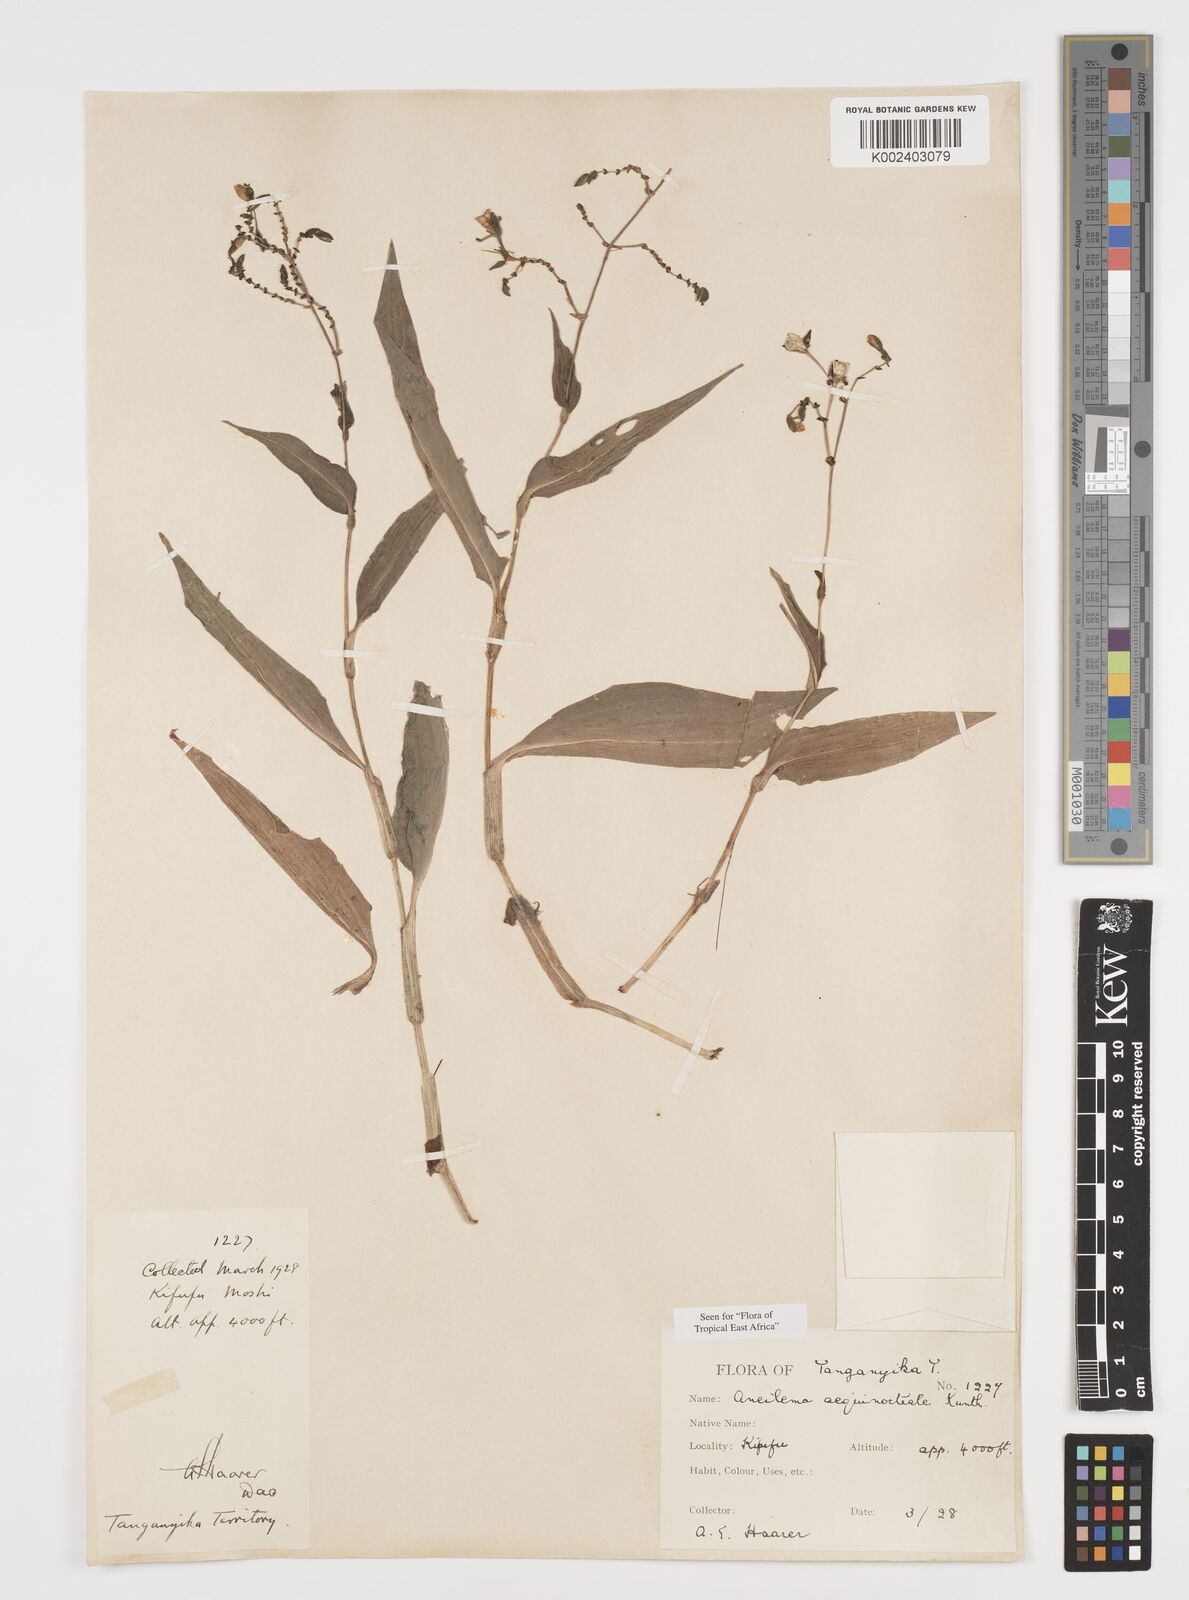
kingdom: Plantae
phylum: Tracheophyta
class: Liliopsida
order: Commelinales
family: Commelinaceae
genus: Aneilema
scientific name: Aneilema aequinoctiale
